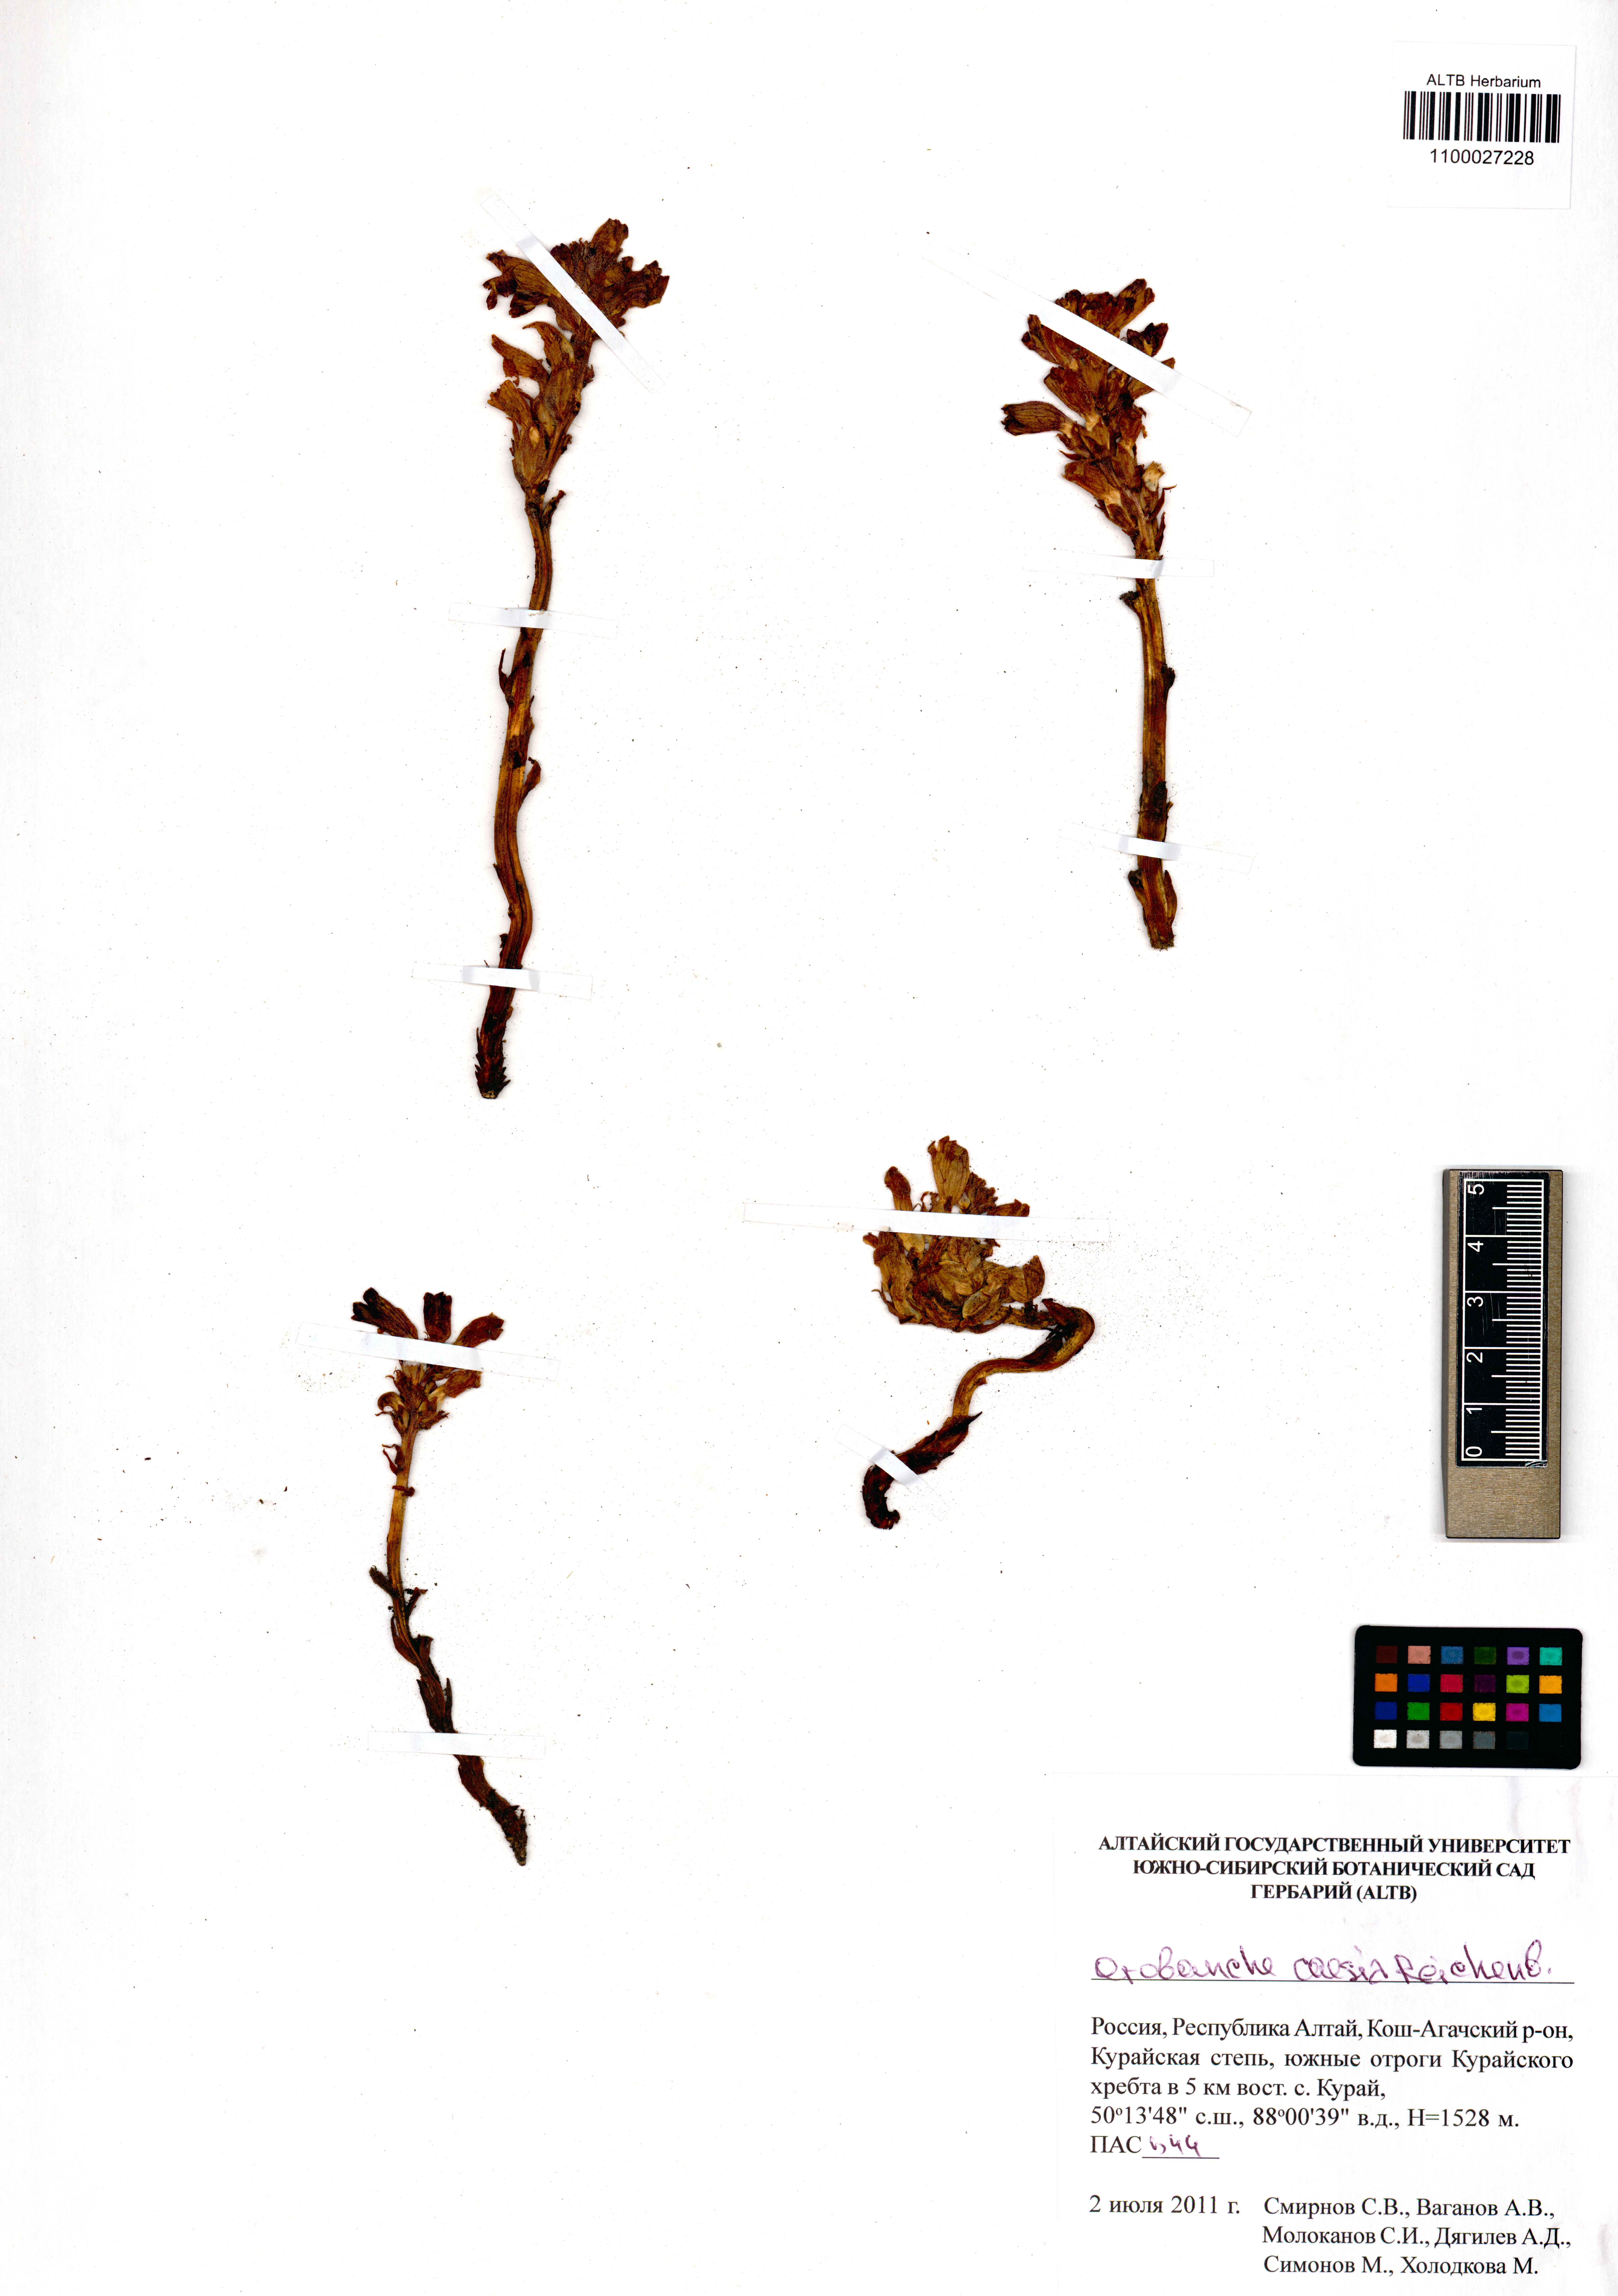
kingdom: Plantae
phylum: Tracheophyta
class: Magnoliopsida
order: Lamiales
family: Orobanchaceae
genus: Phelipanche
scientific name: Phelipanche caesia
